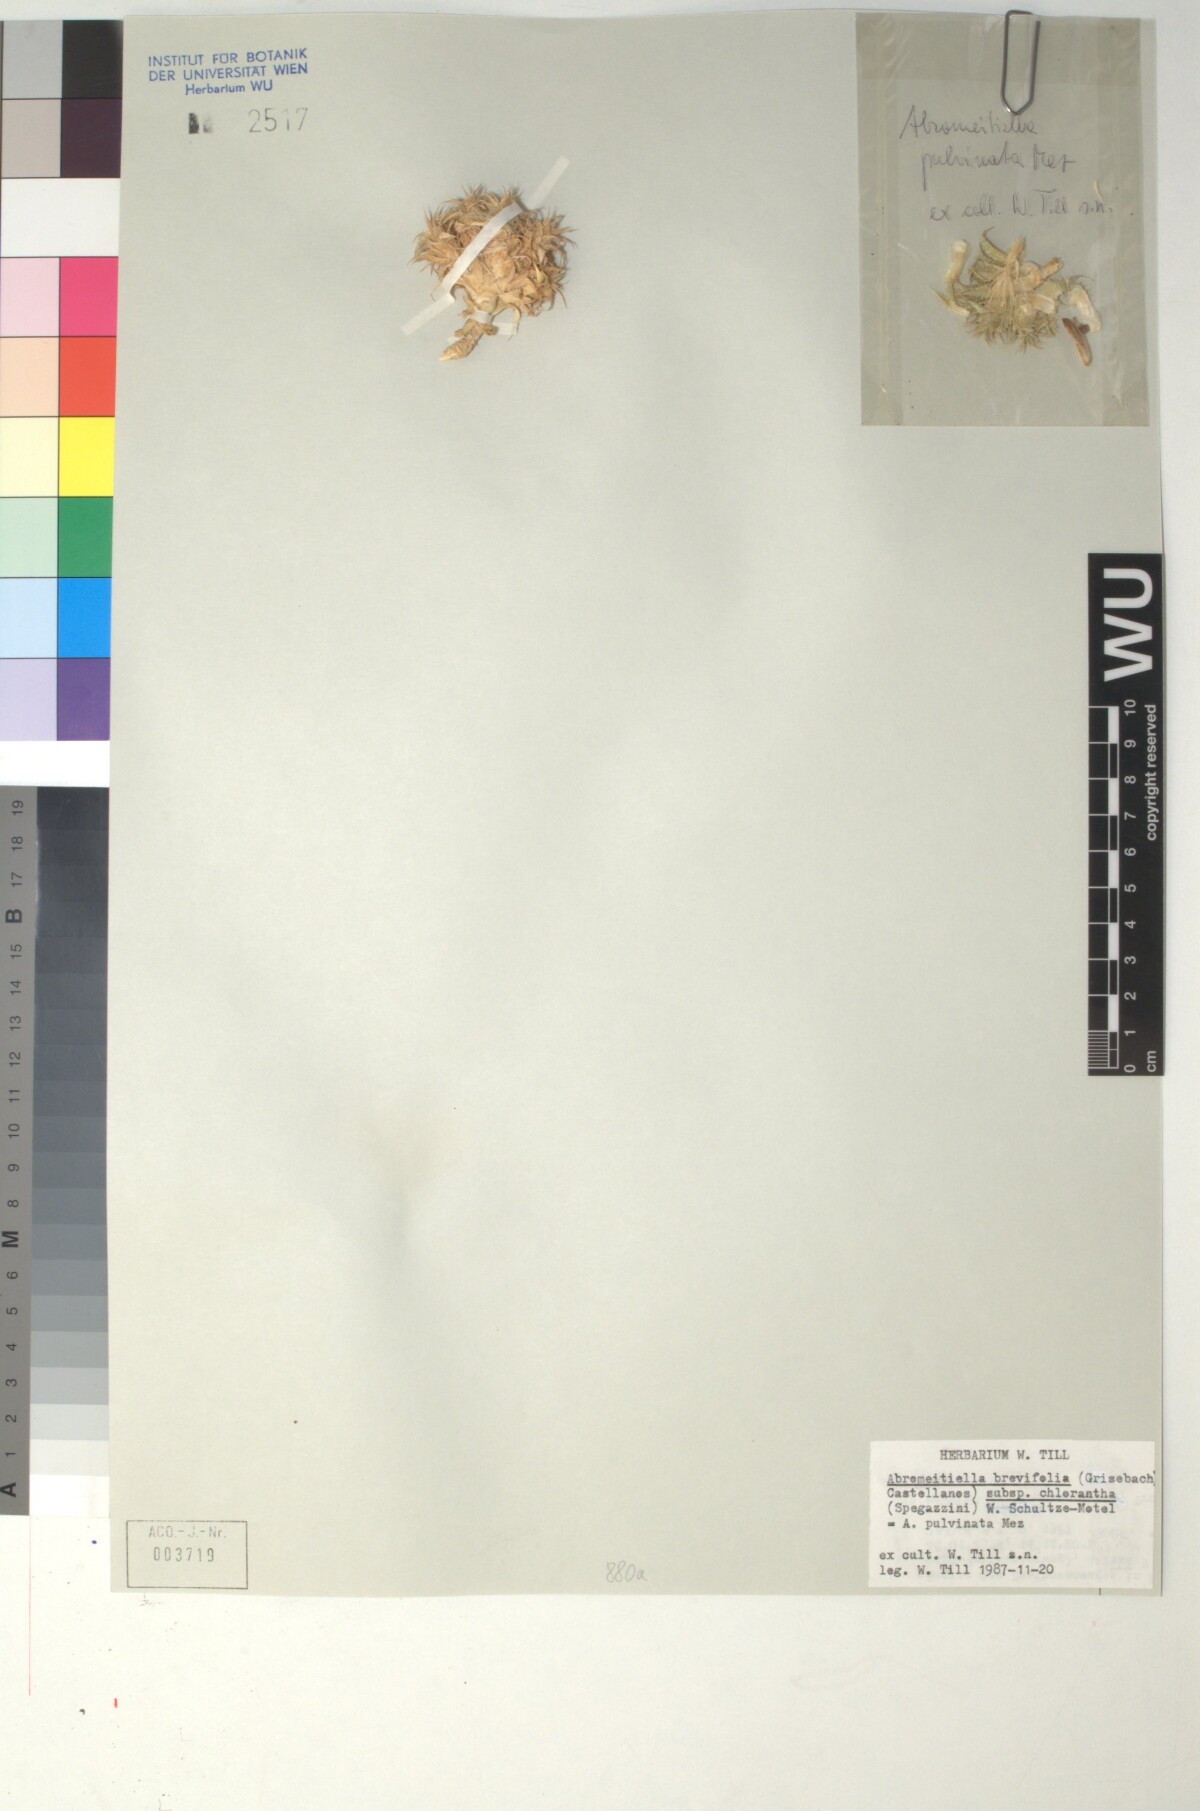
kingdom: Plantae
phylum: Tracheophyta
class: Liliopsida
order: Poales
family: Bromeliaceae
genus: Deuterocohnia
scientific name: Deuterocohnia brevifolia
